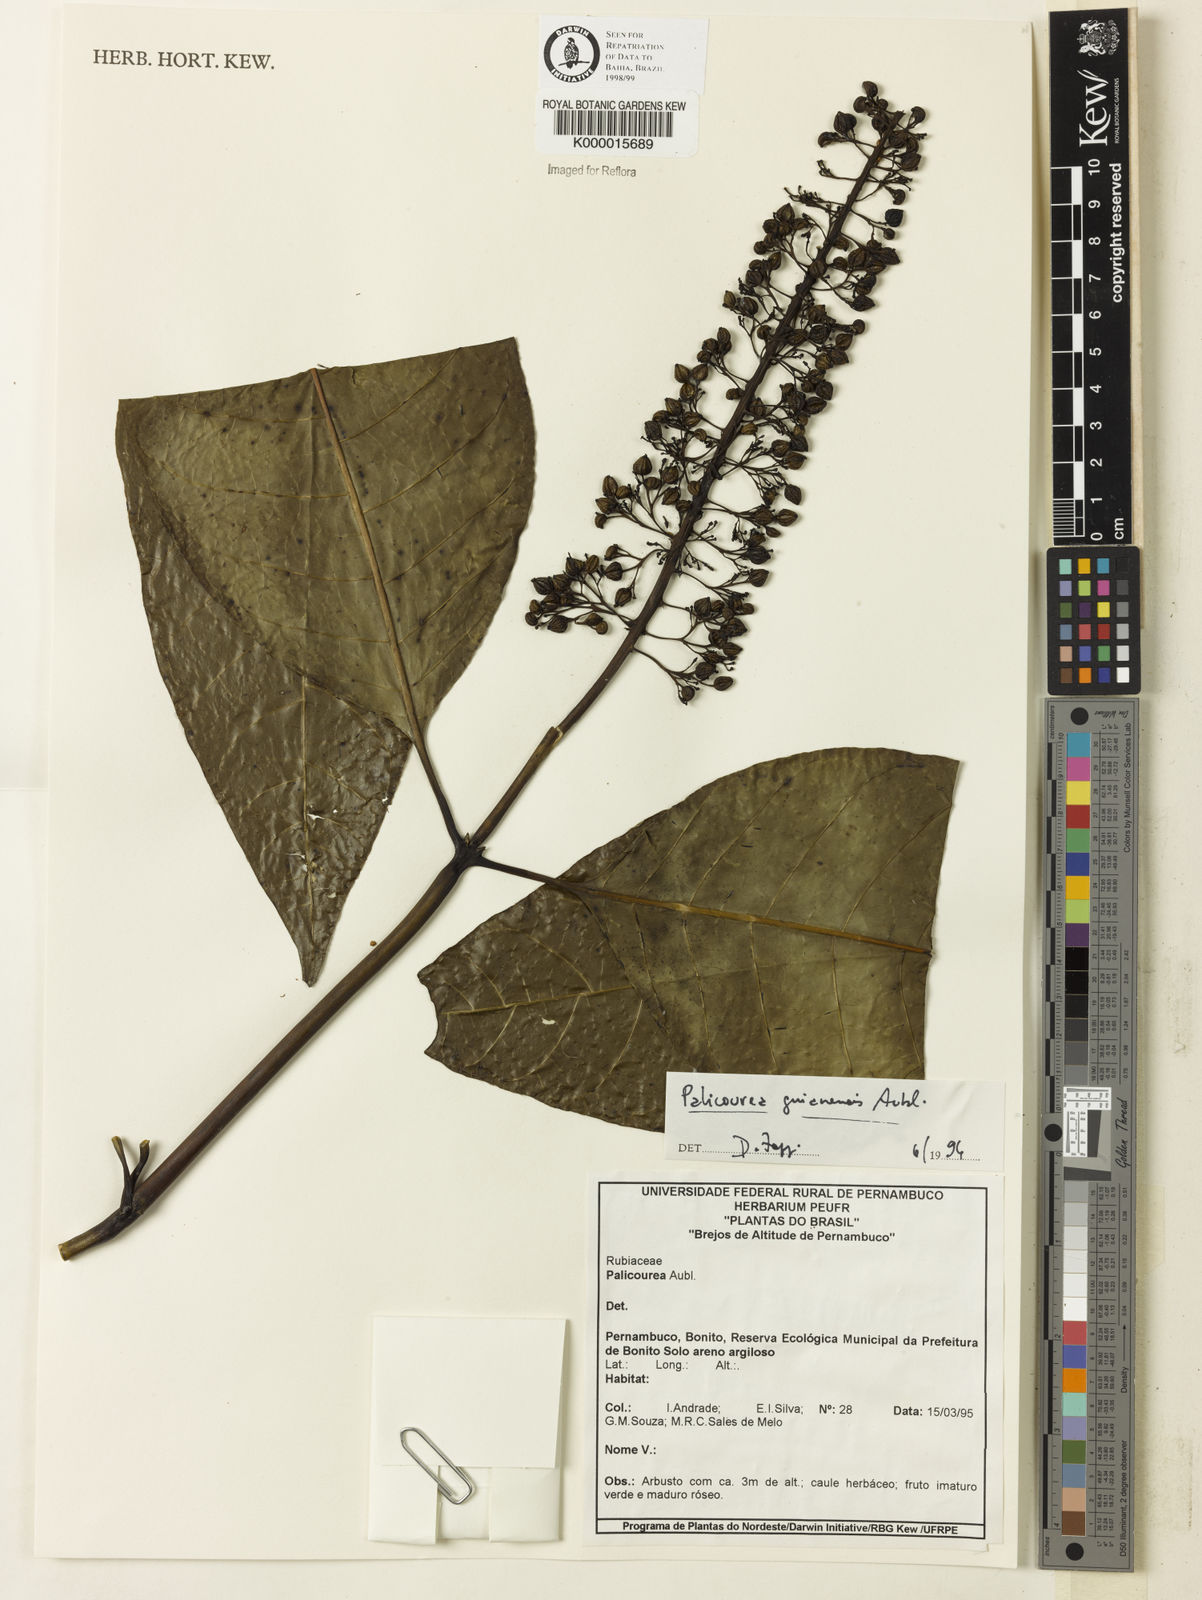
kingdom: Plantae
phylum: Tracheophyta
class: Magnoliopsida
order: Gentianales
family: Rubiaceae
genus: Palicourea
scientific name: Palicourea guianensis
